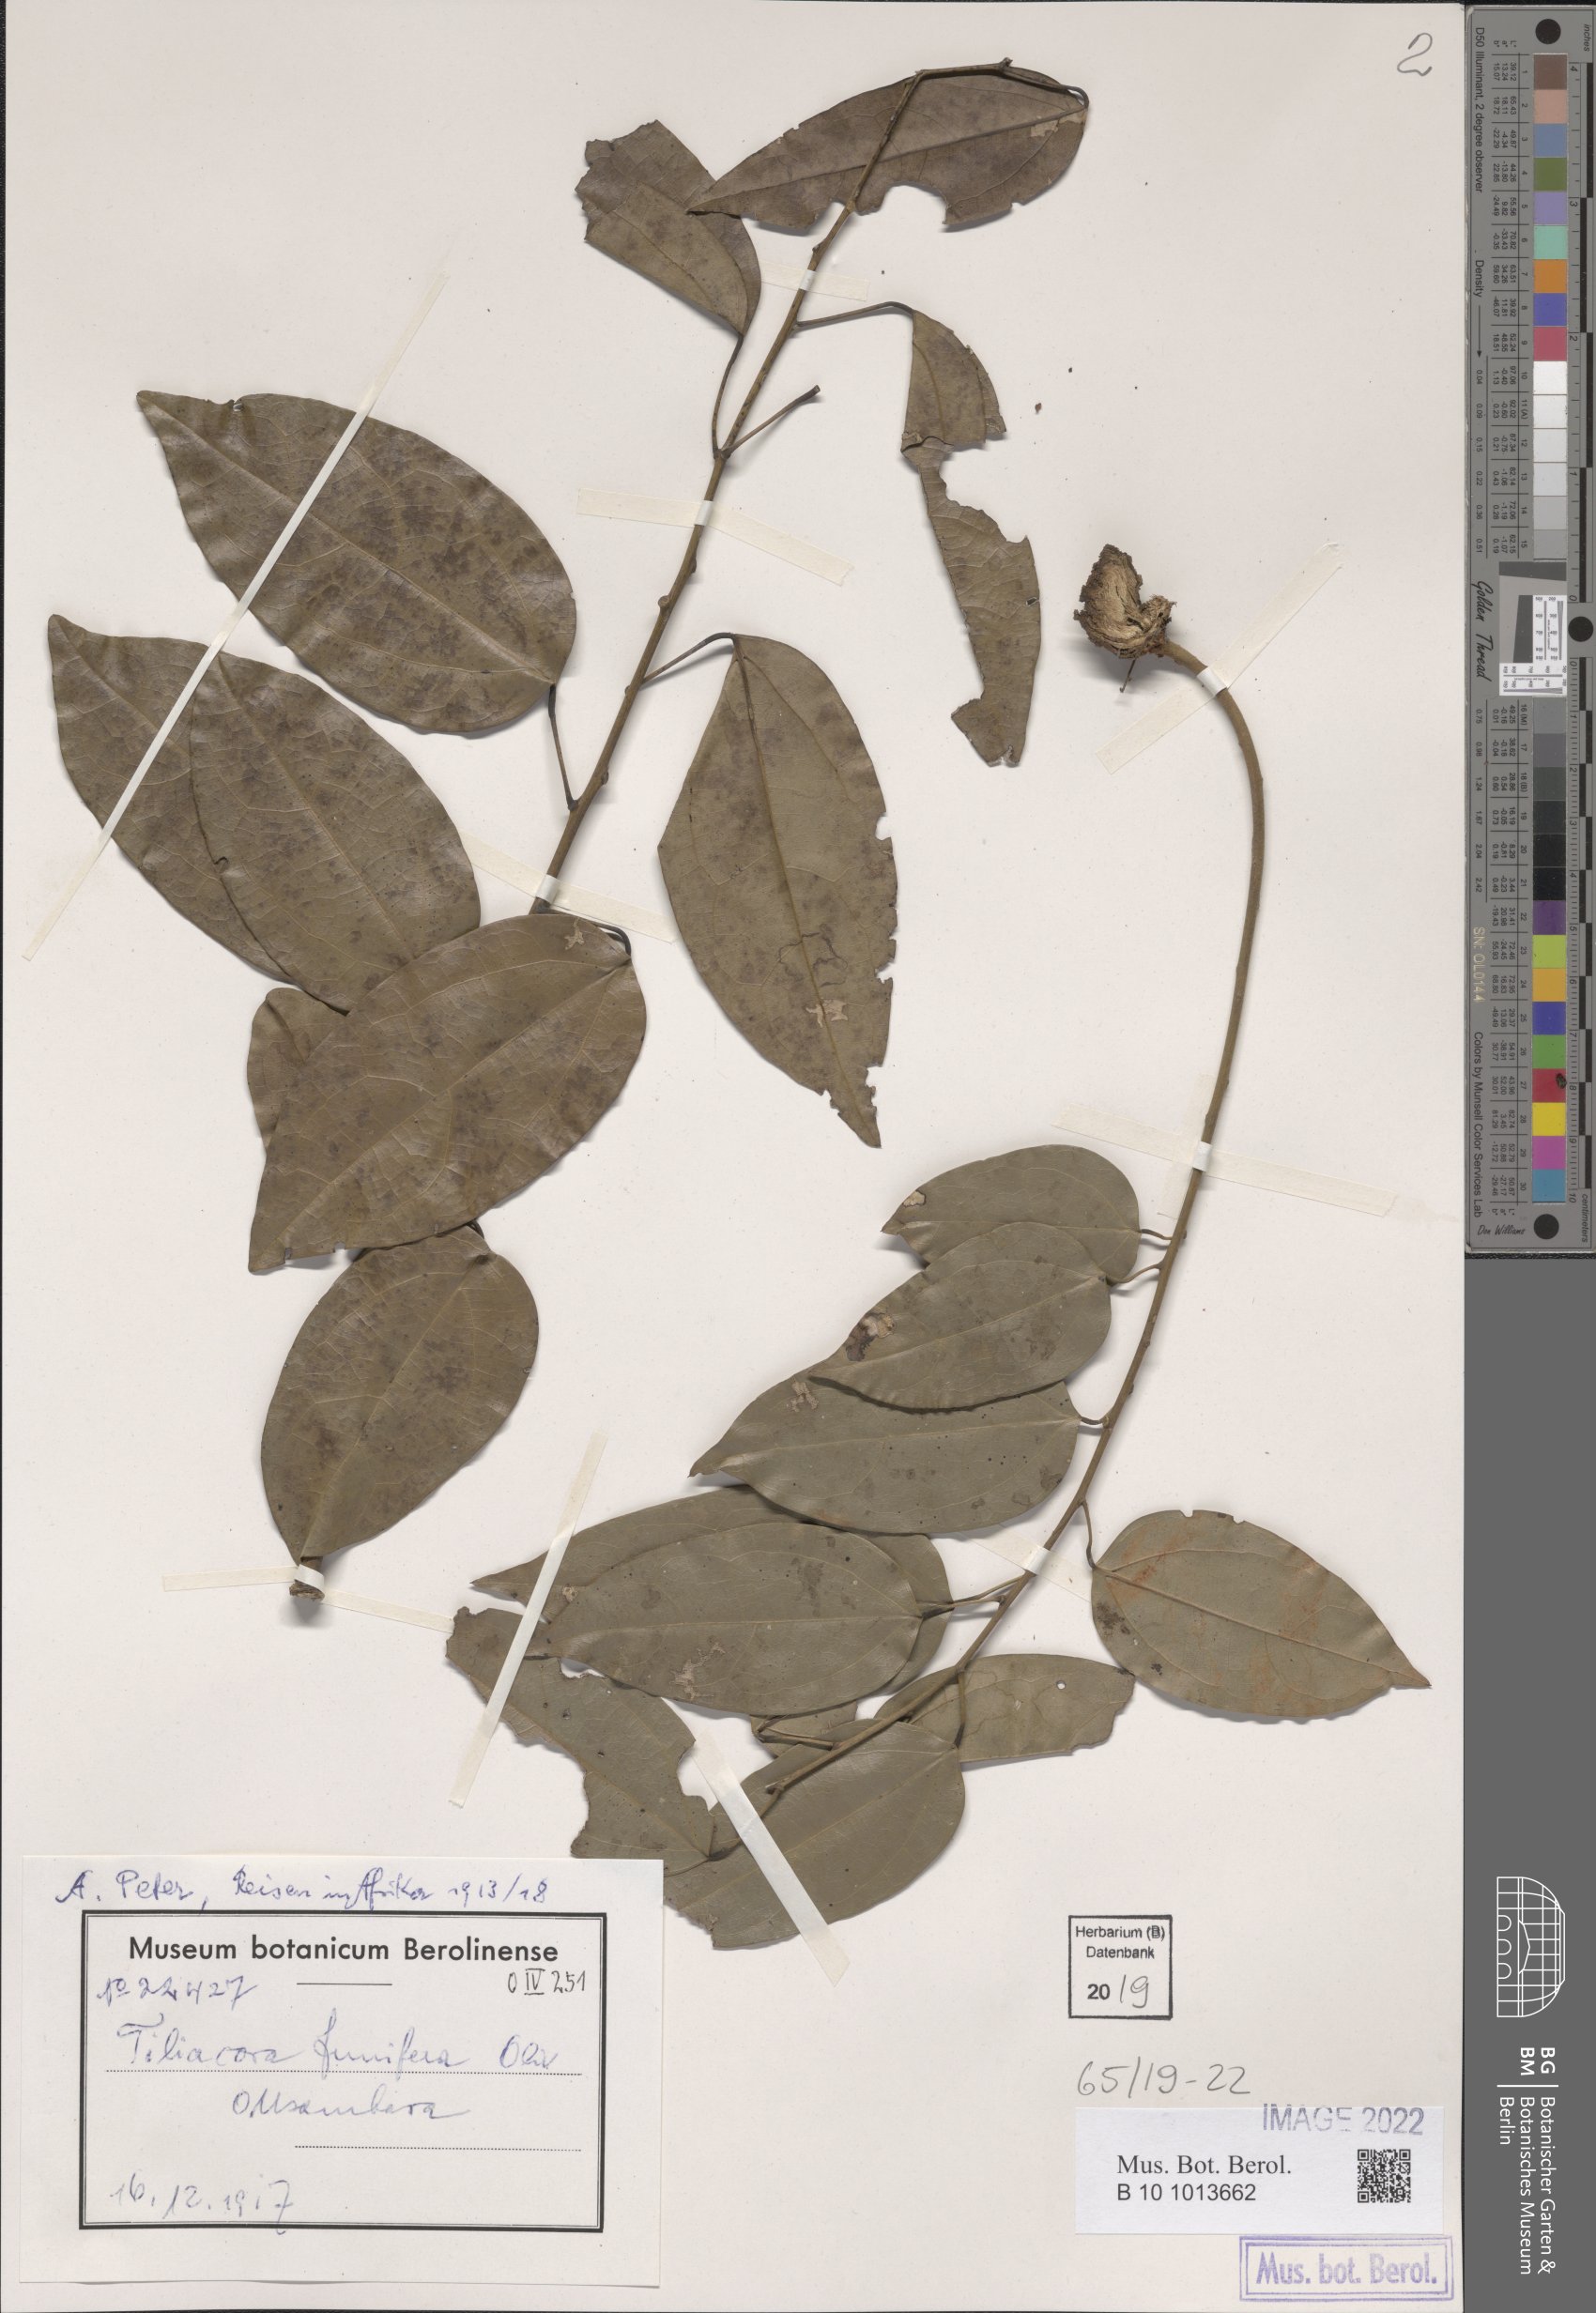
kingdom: Plantae
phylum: Tracheophyta
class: Magnoliopsida
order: Ranunculales
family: Menispermaceae
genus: Tiliacora
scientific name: Tiliacora funifera
